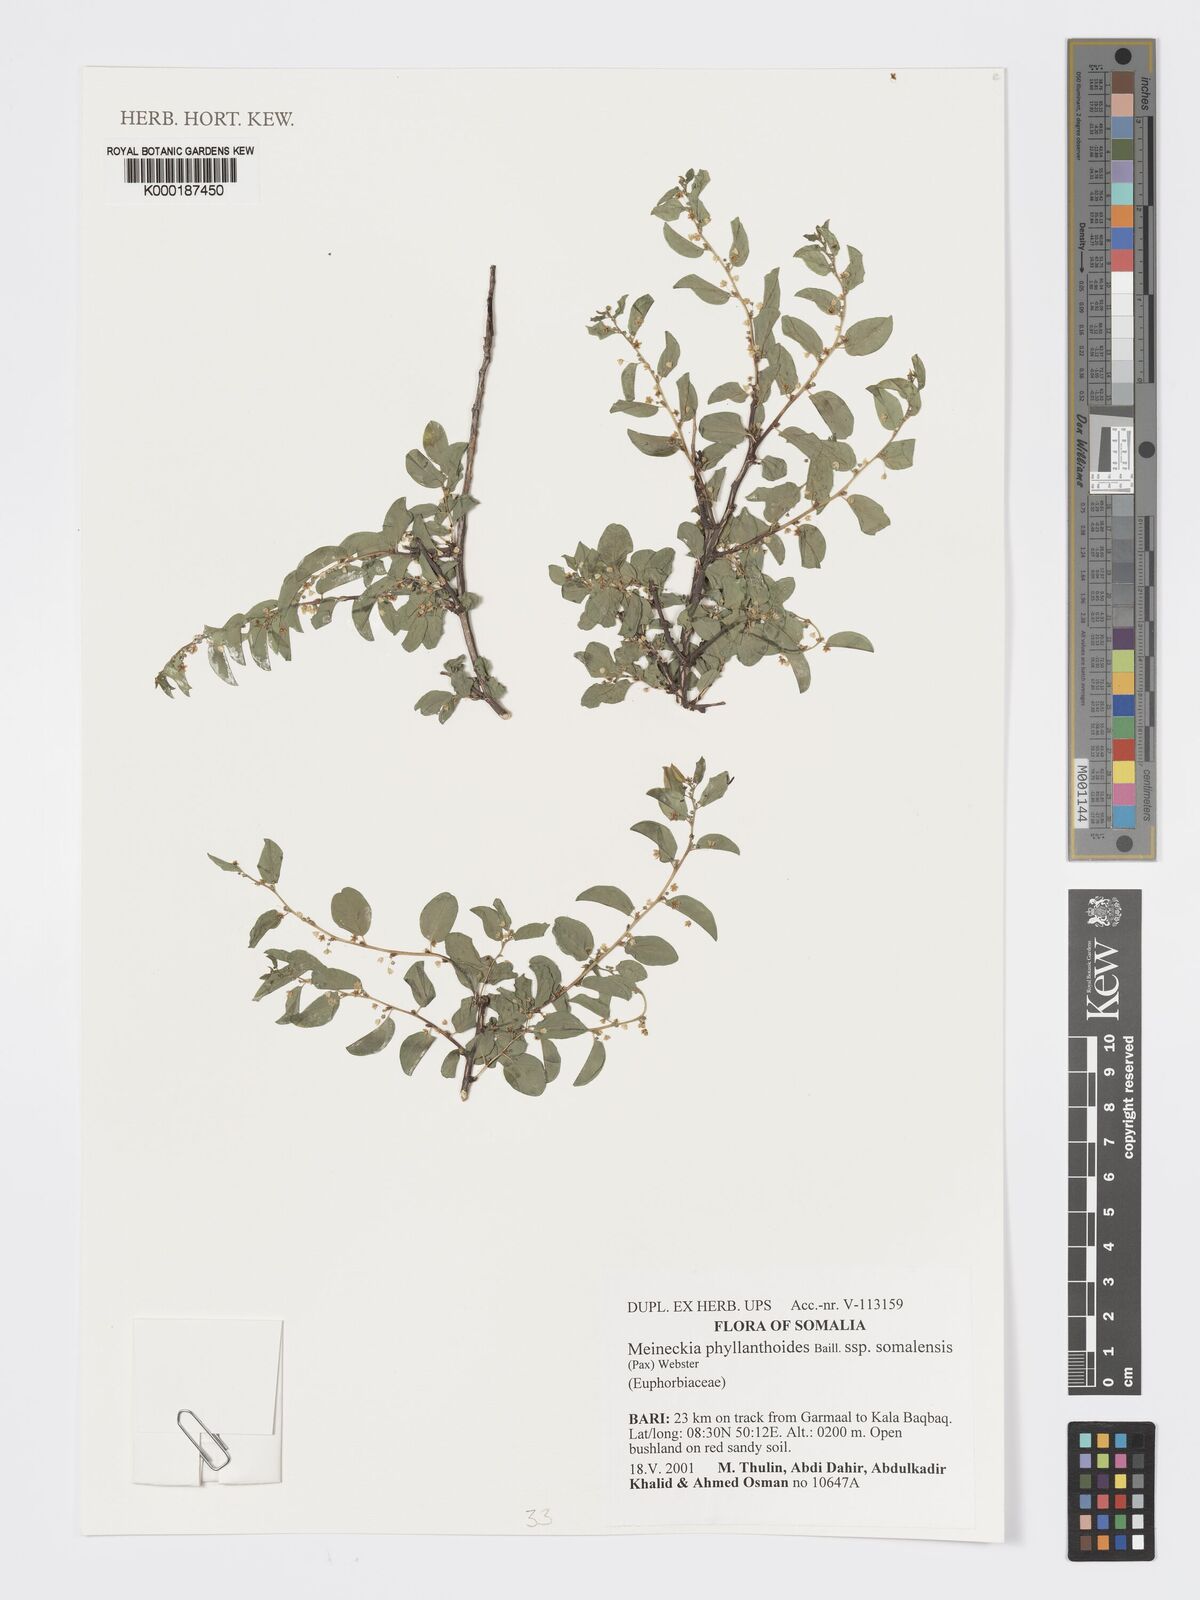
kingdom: Plantae
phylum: Tracheophyta
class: Magnoliopsida
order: Malpighiales
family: Phyllanthaceae
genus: Meineckia
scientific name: Meineckia phyllanthoides
